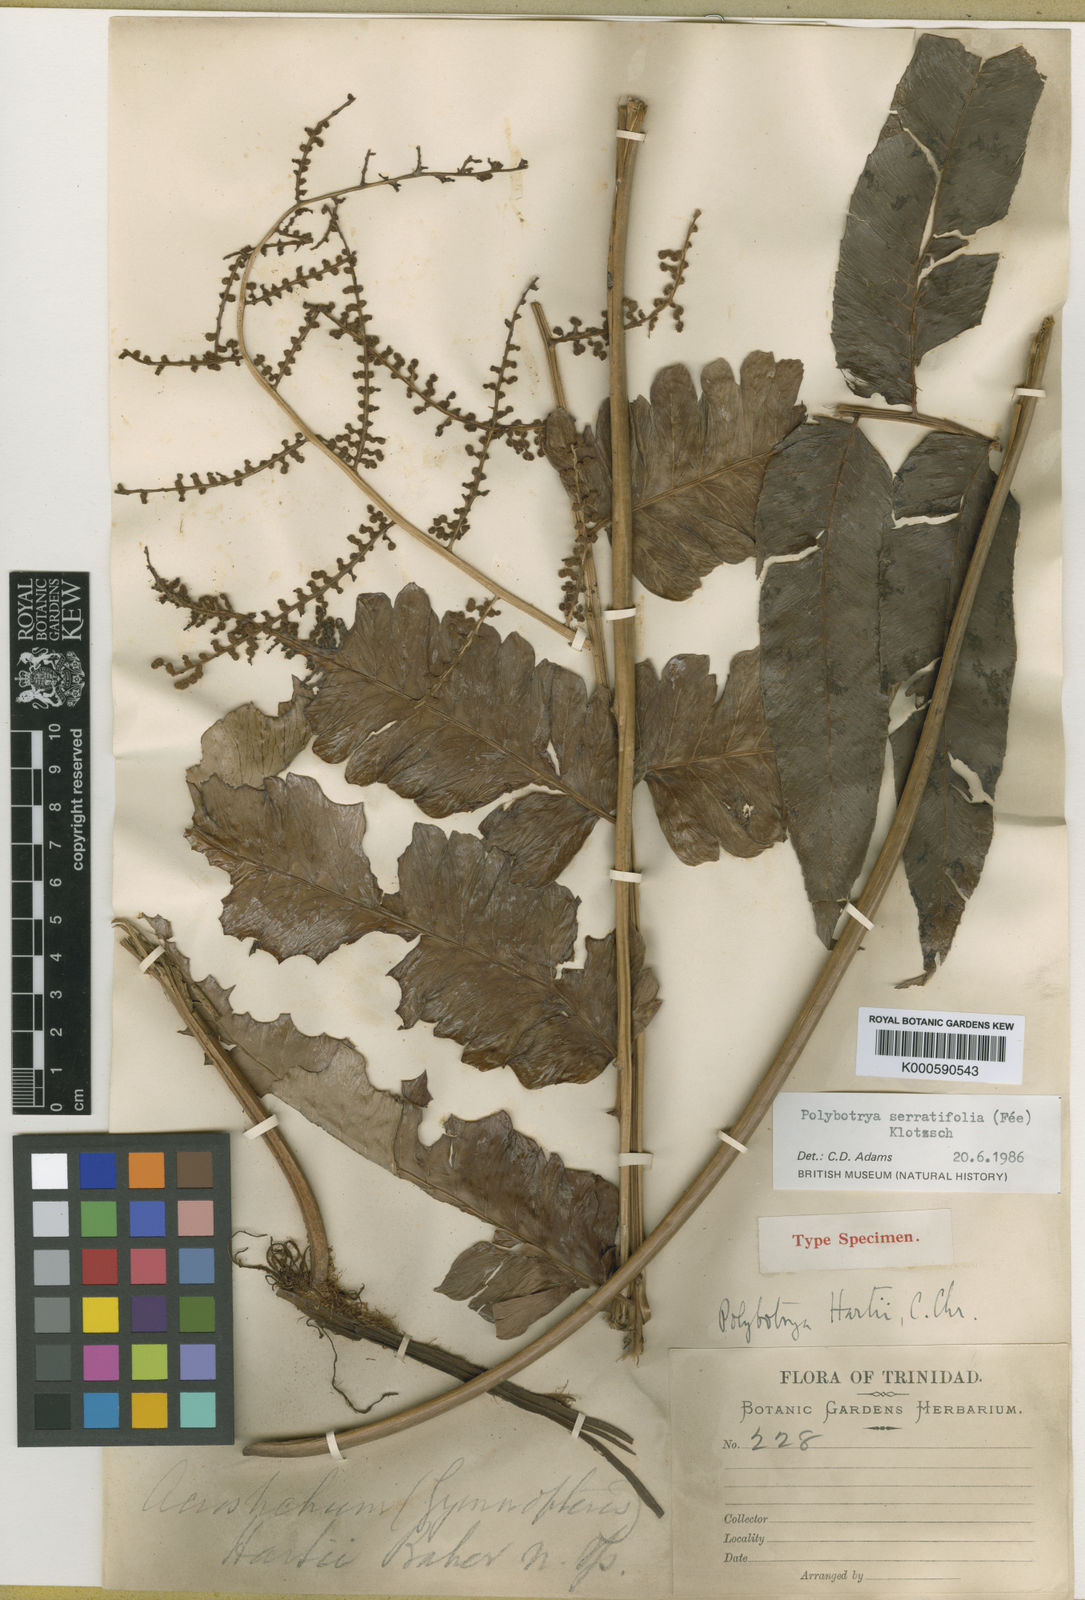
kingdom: Plantae
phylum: Tracheophyta
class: Polypodiopsida
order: Polypodiales
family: Dryopteridaceae
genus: Polybotrya
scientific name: Polybotrya
